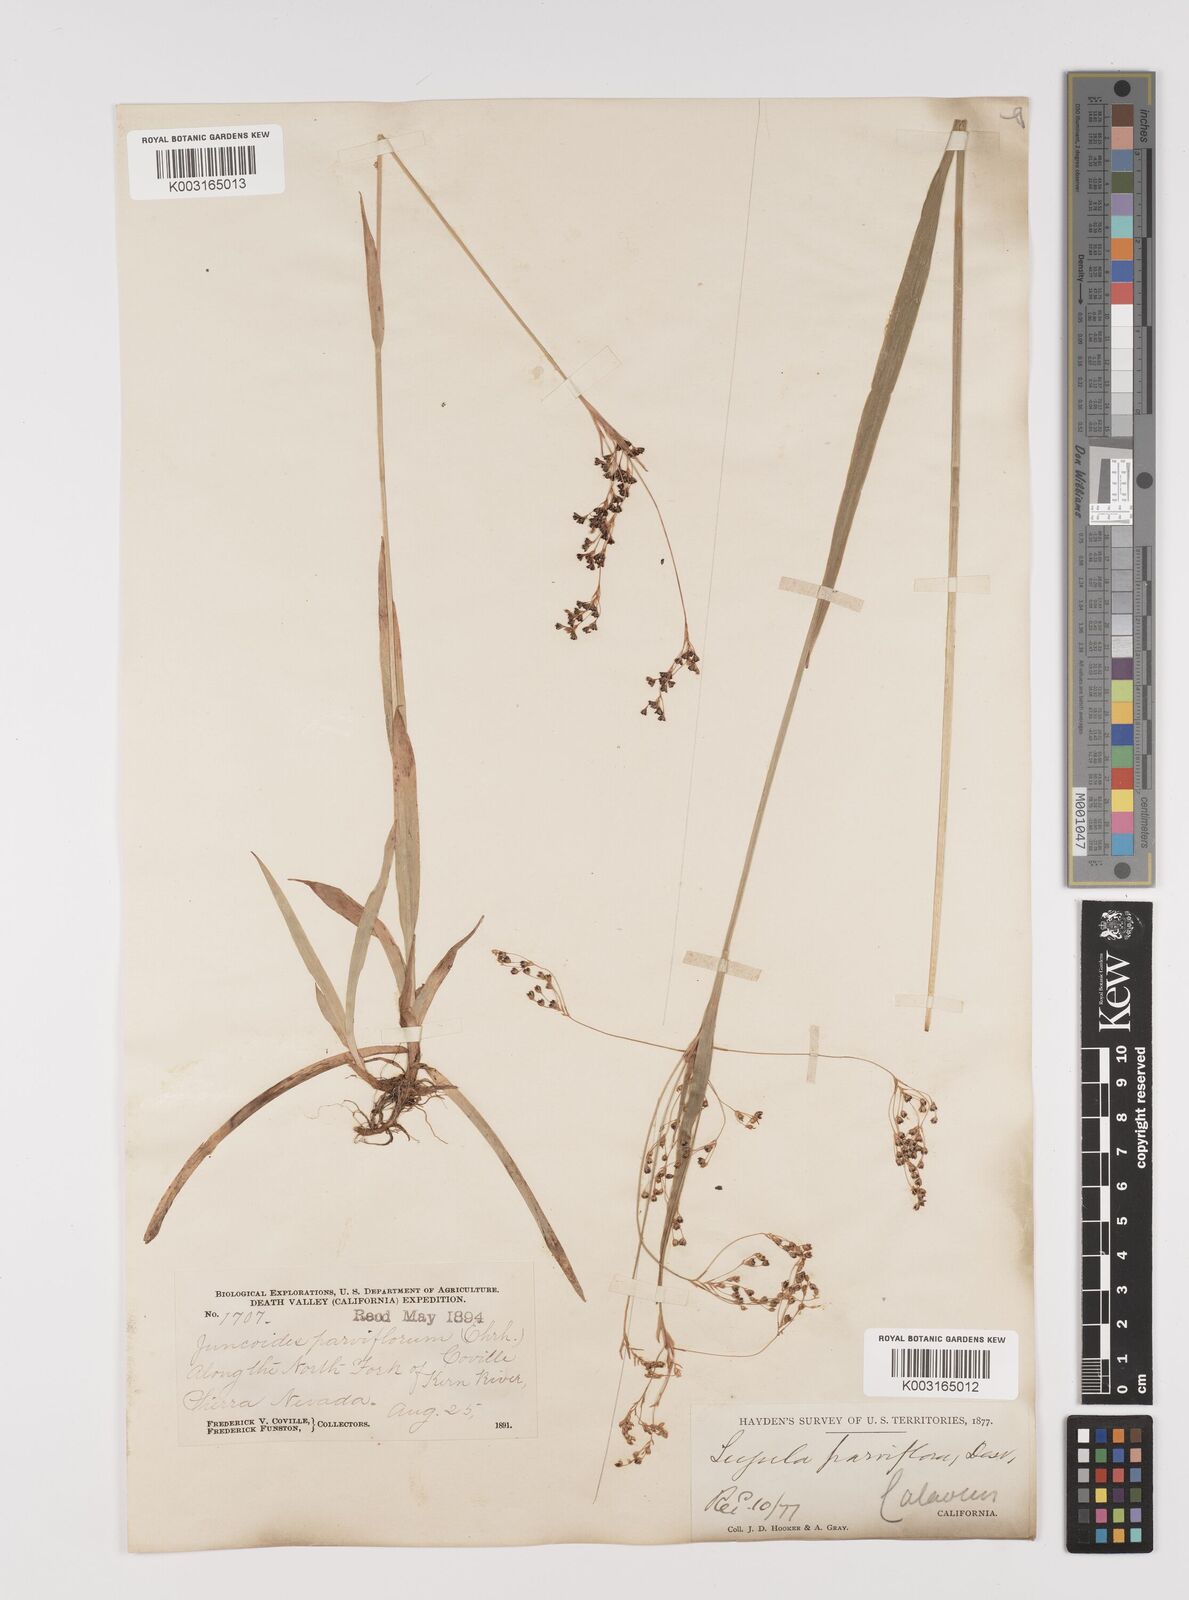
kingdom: Plantae
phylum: Tracheophyta
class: Liliopsida
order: Poales
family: Juncaceae
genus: Luzula
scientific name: Luzula parviflora
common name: Millet woodrush
